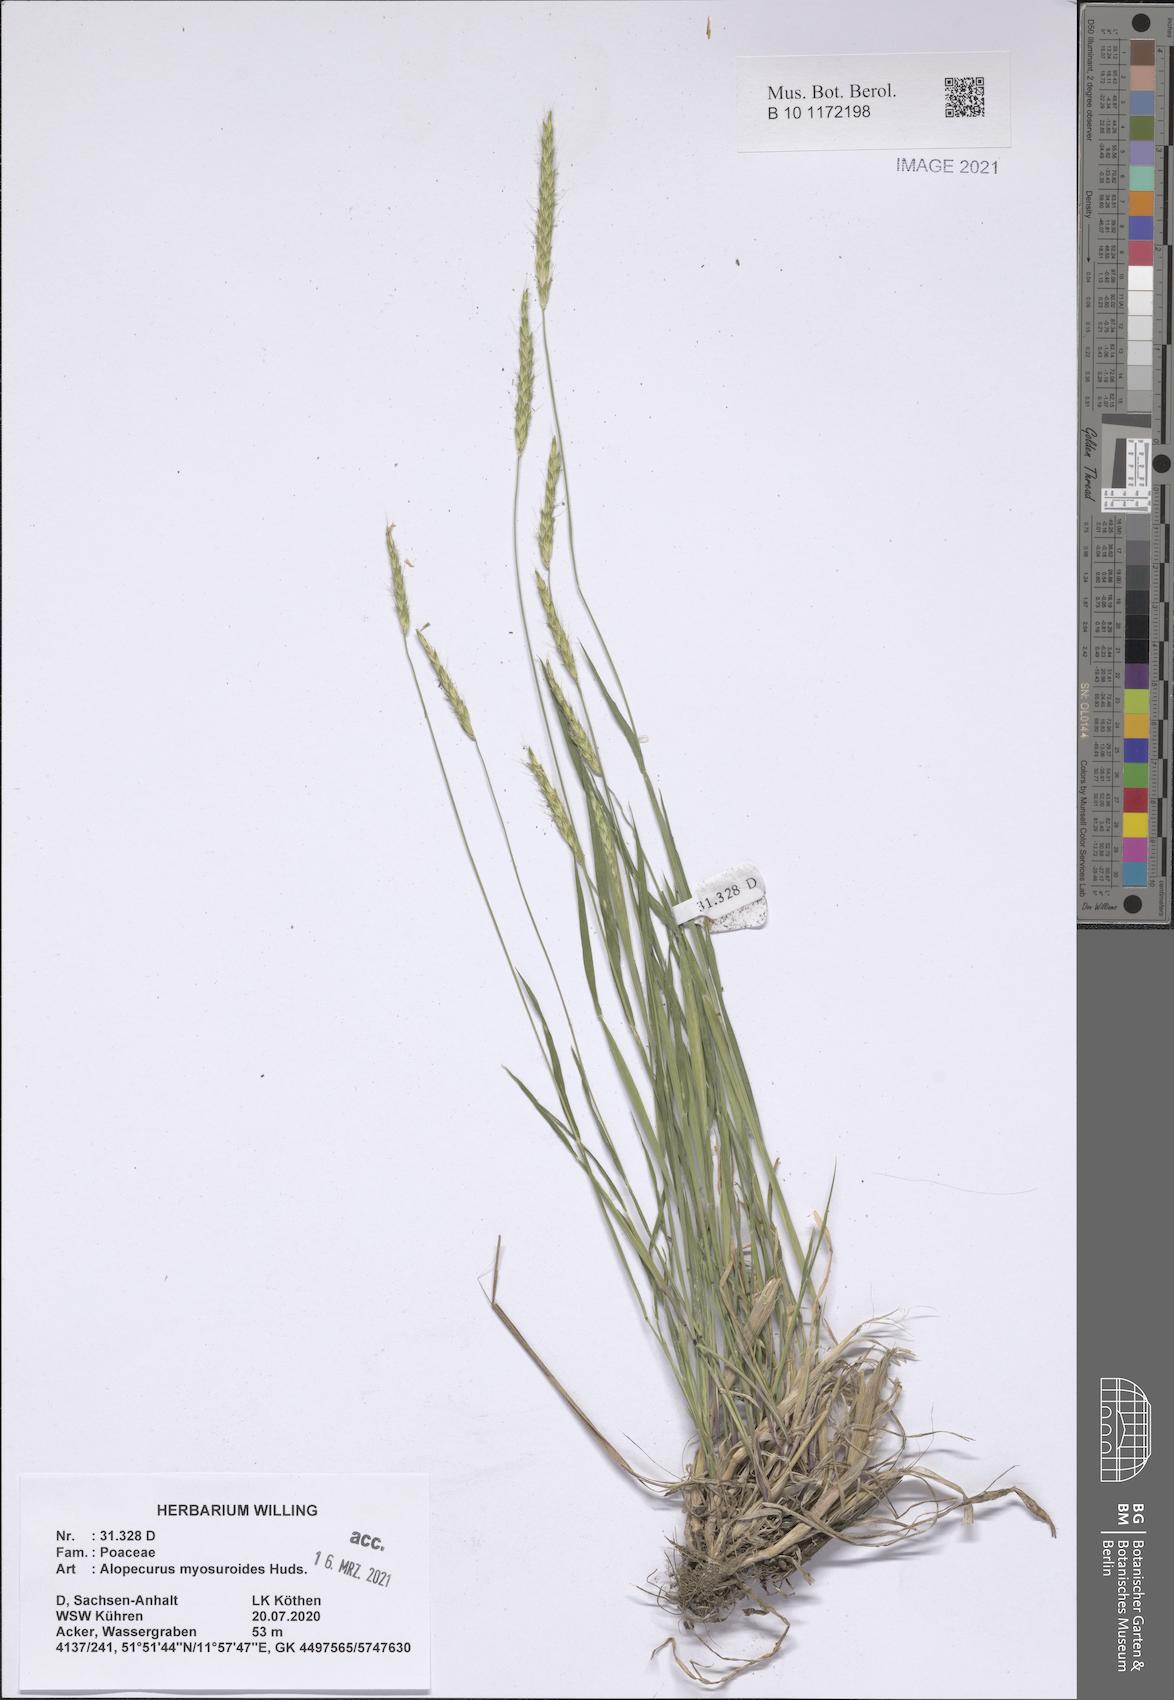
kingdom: Plantae
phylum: Tracheophyta
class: Liliopsida
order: Poales
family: Poaceae
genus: Alopecurus
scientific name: Alopecurus myosuroides
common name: Black-grass
